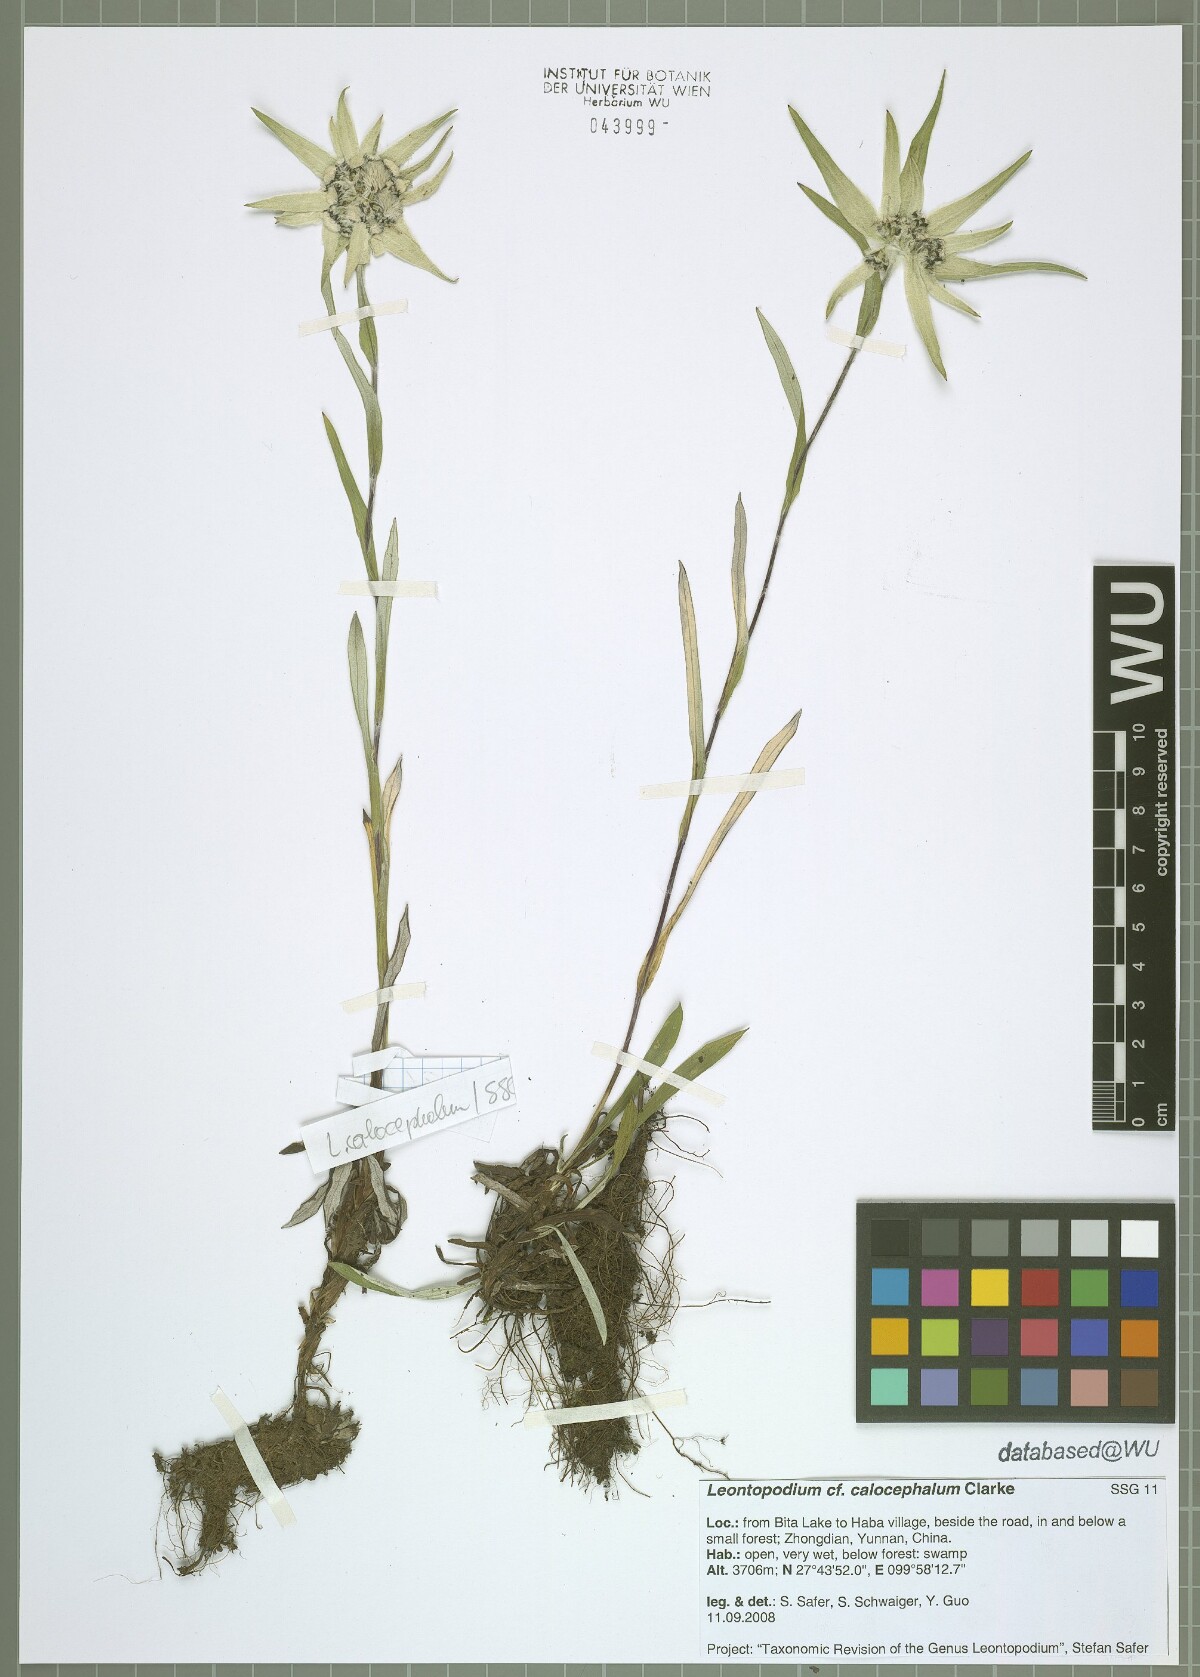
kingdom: Plantae
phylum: Tracheophyta
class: Magnoliopsida
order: Asterales
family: Asteraceae
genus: Leontopodium
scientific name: Leontopodium calocephalum
